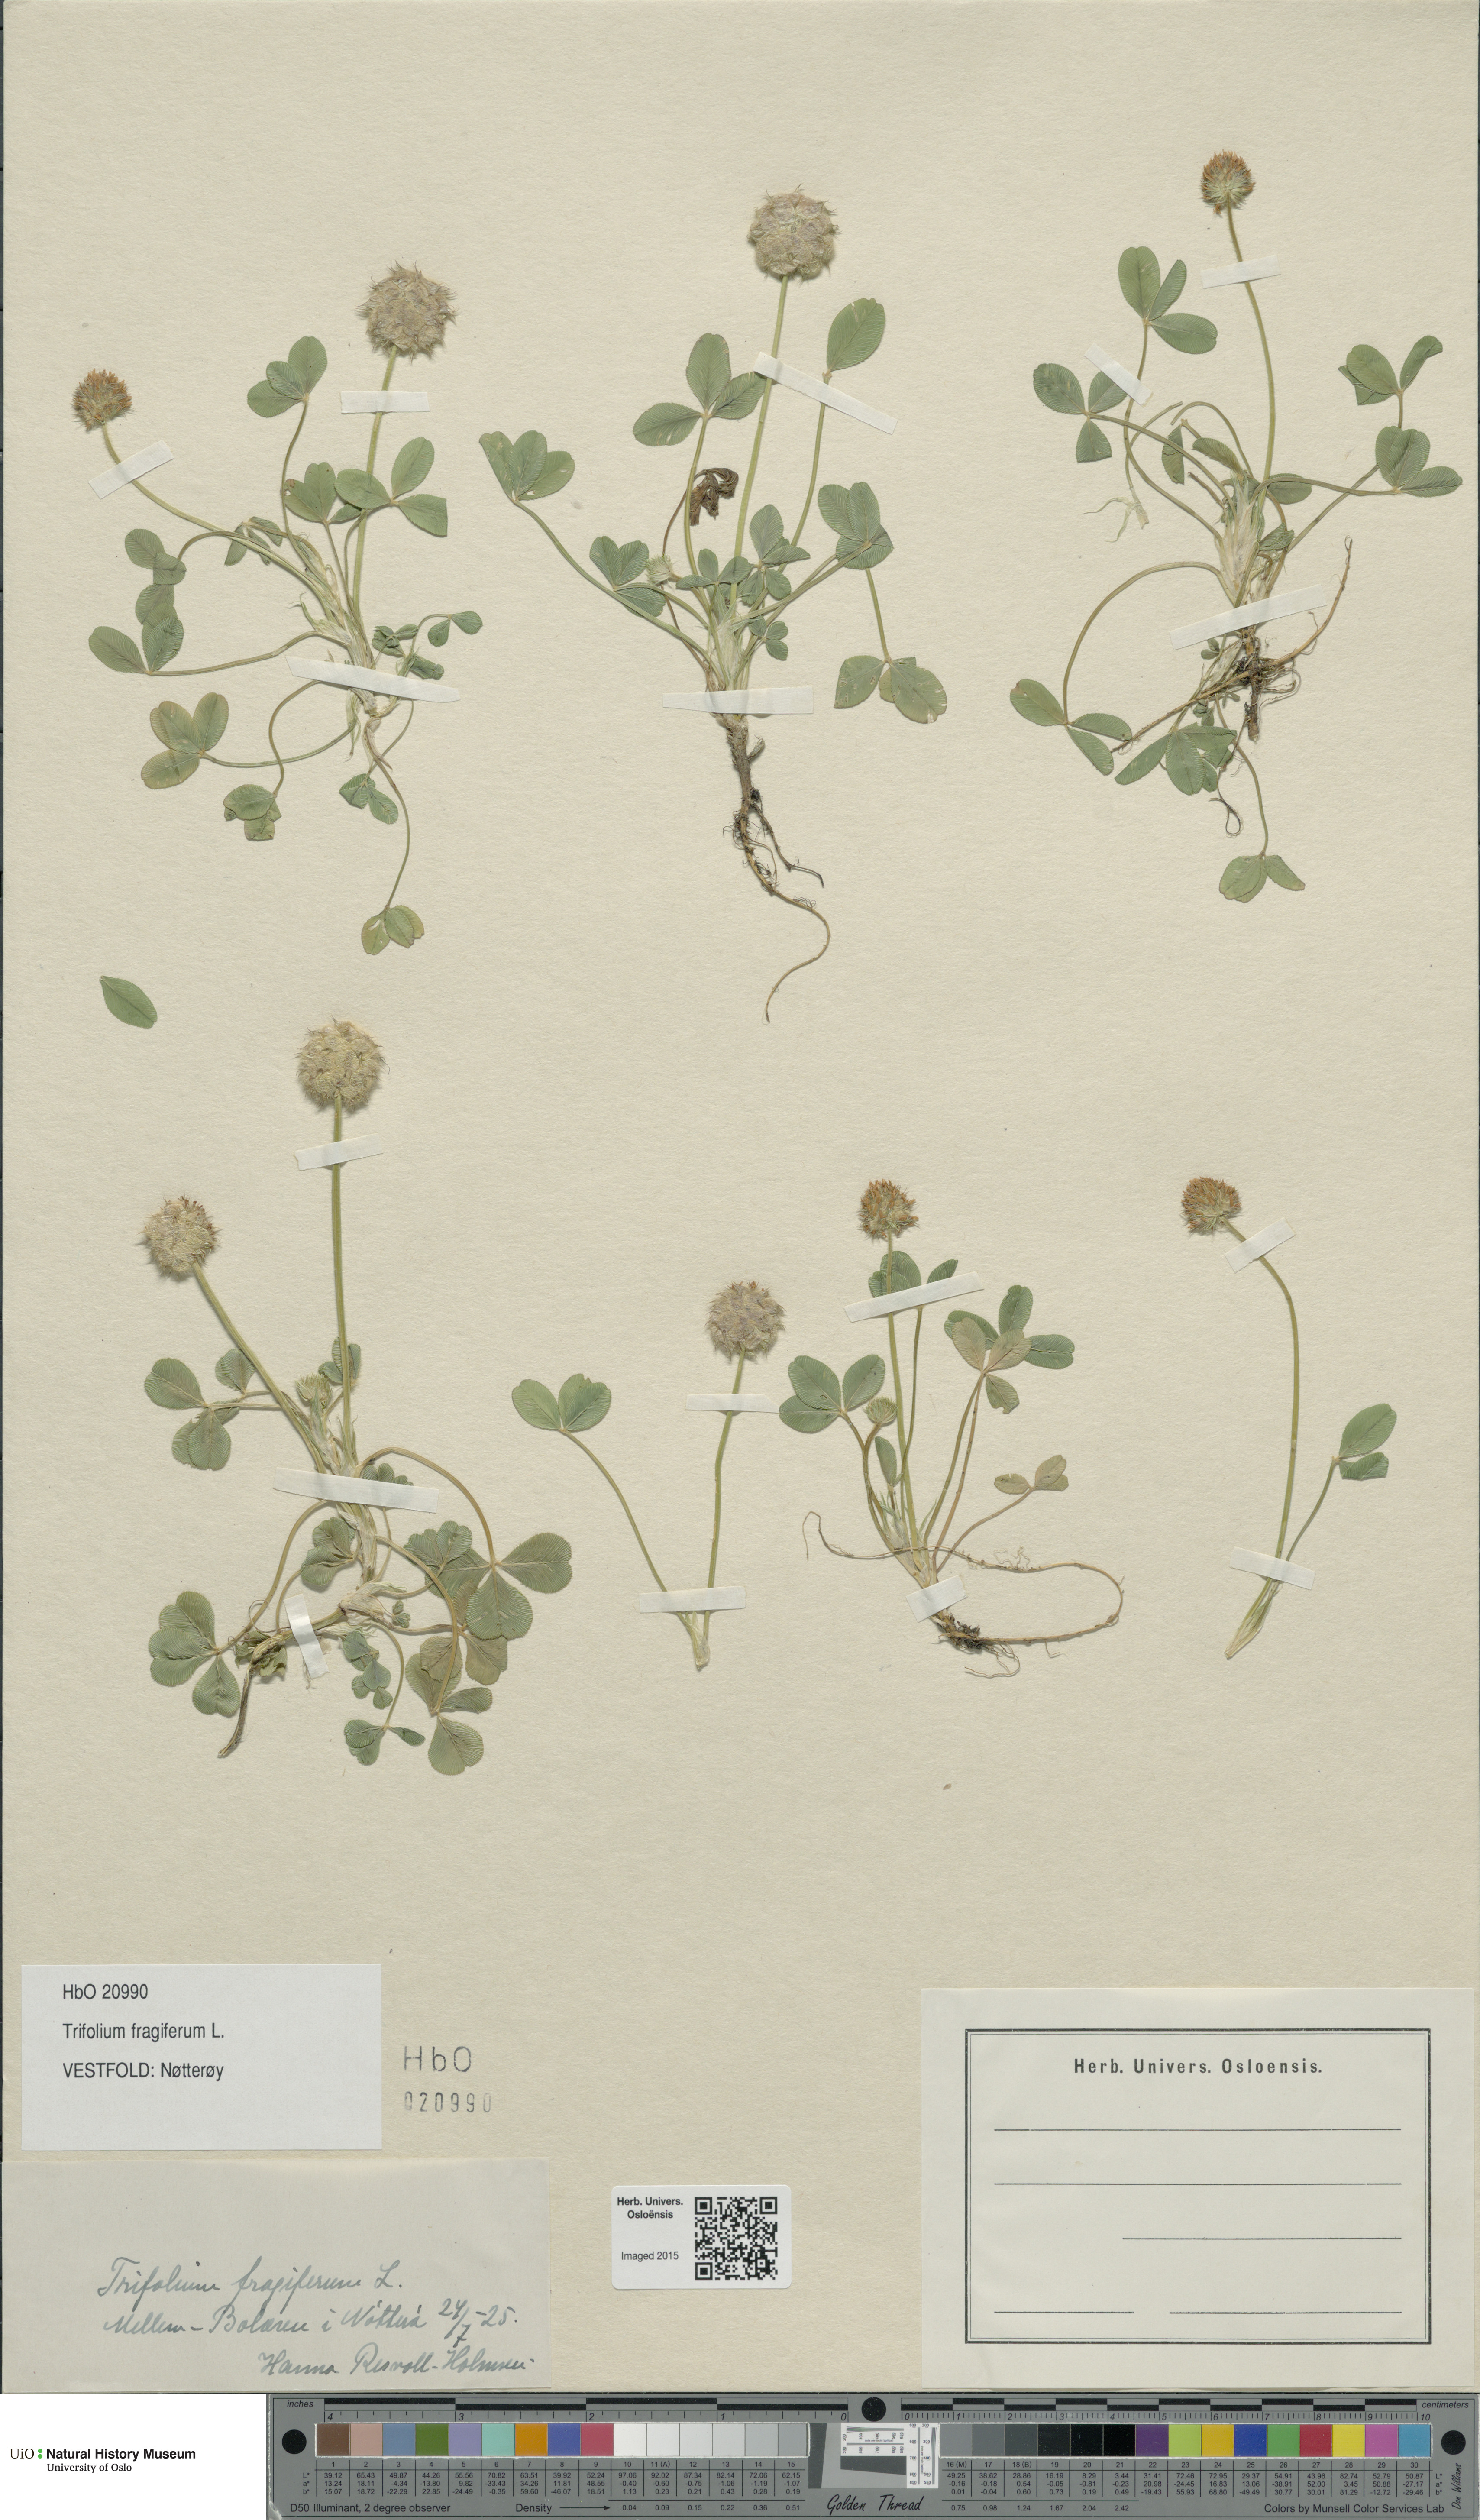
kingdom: Plantae
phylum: Tracheophyta
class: Magnoliopsida
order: Fabales
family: Fabaceae
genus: Trifolium
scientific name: Trifolium fragiferum
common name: Strawberry clover
